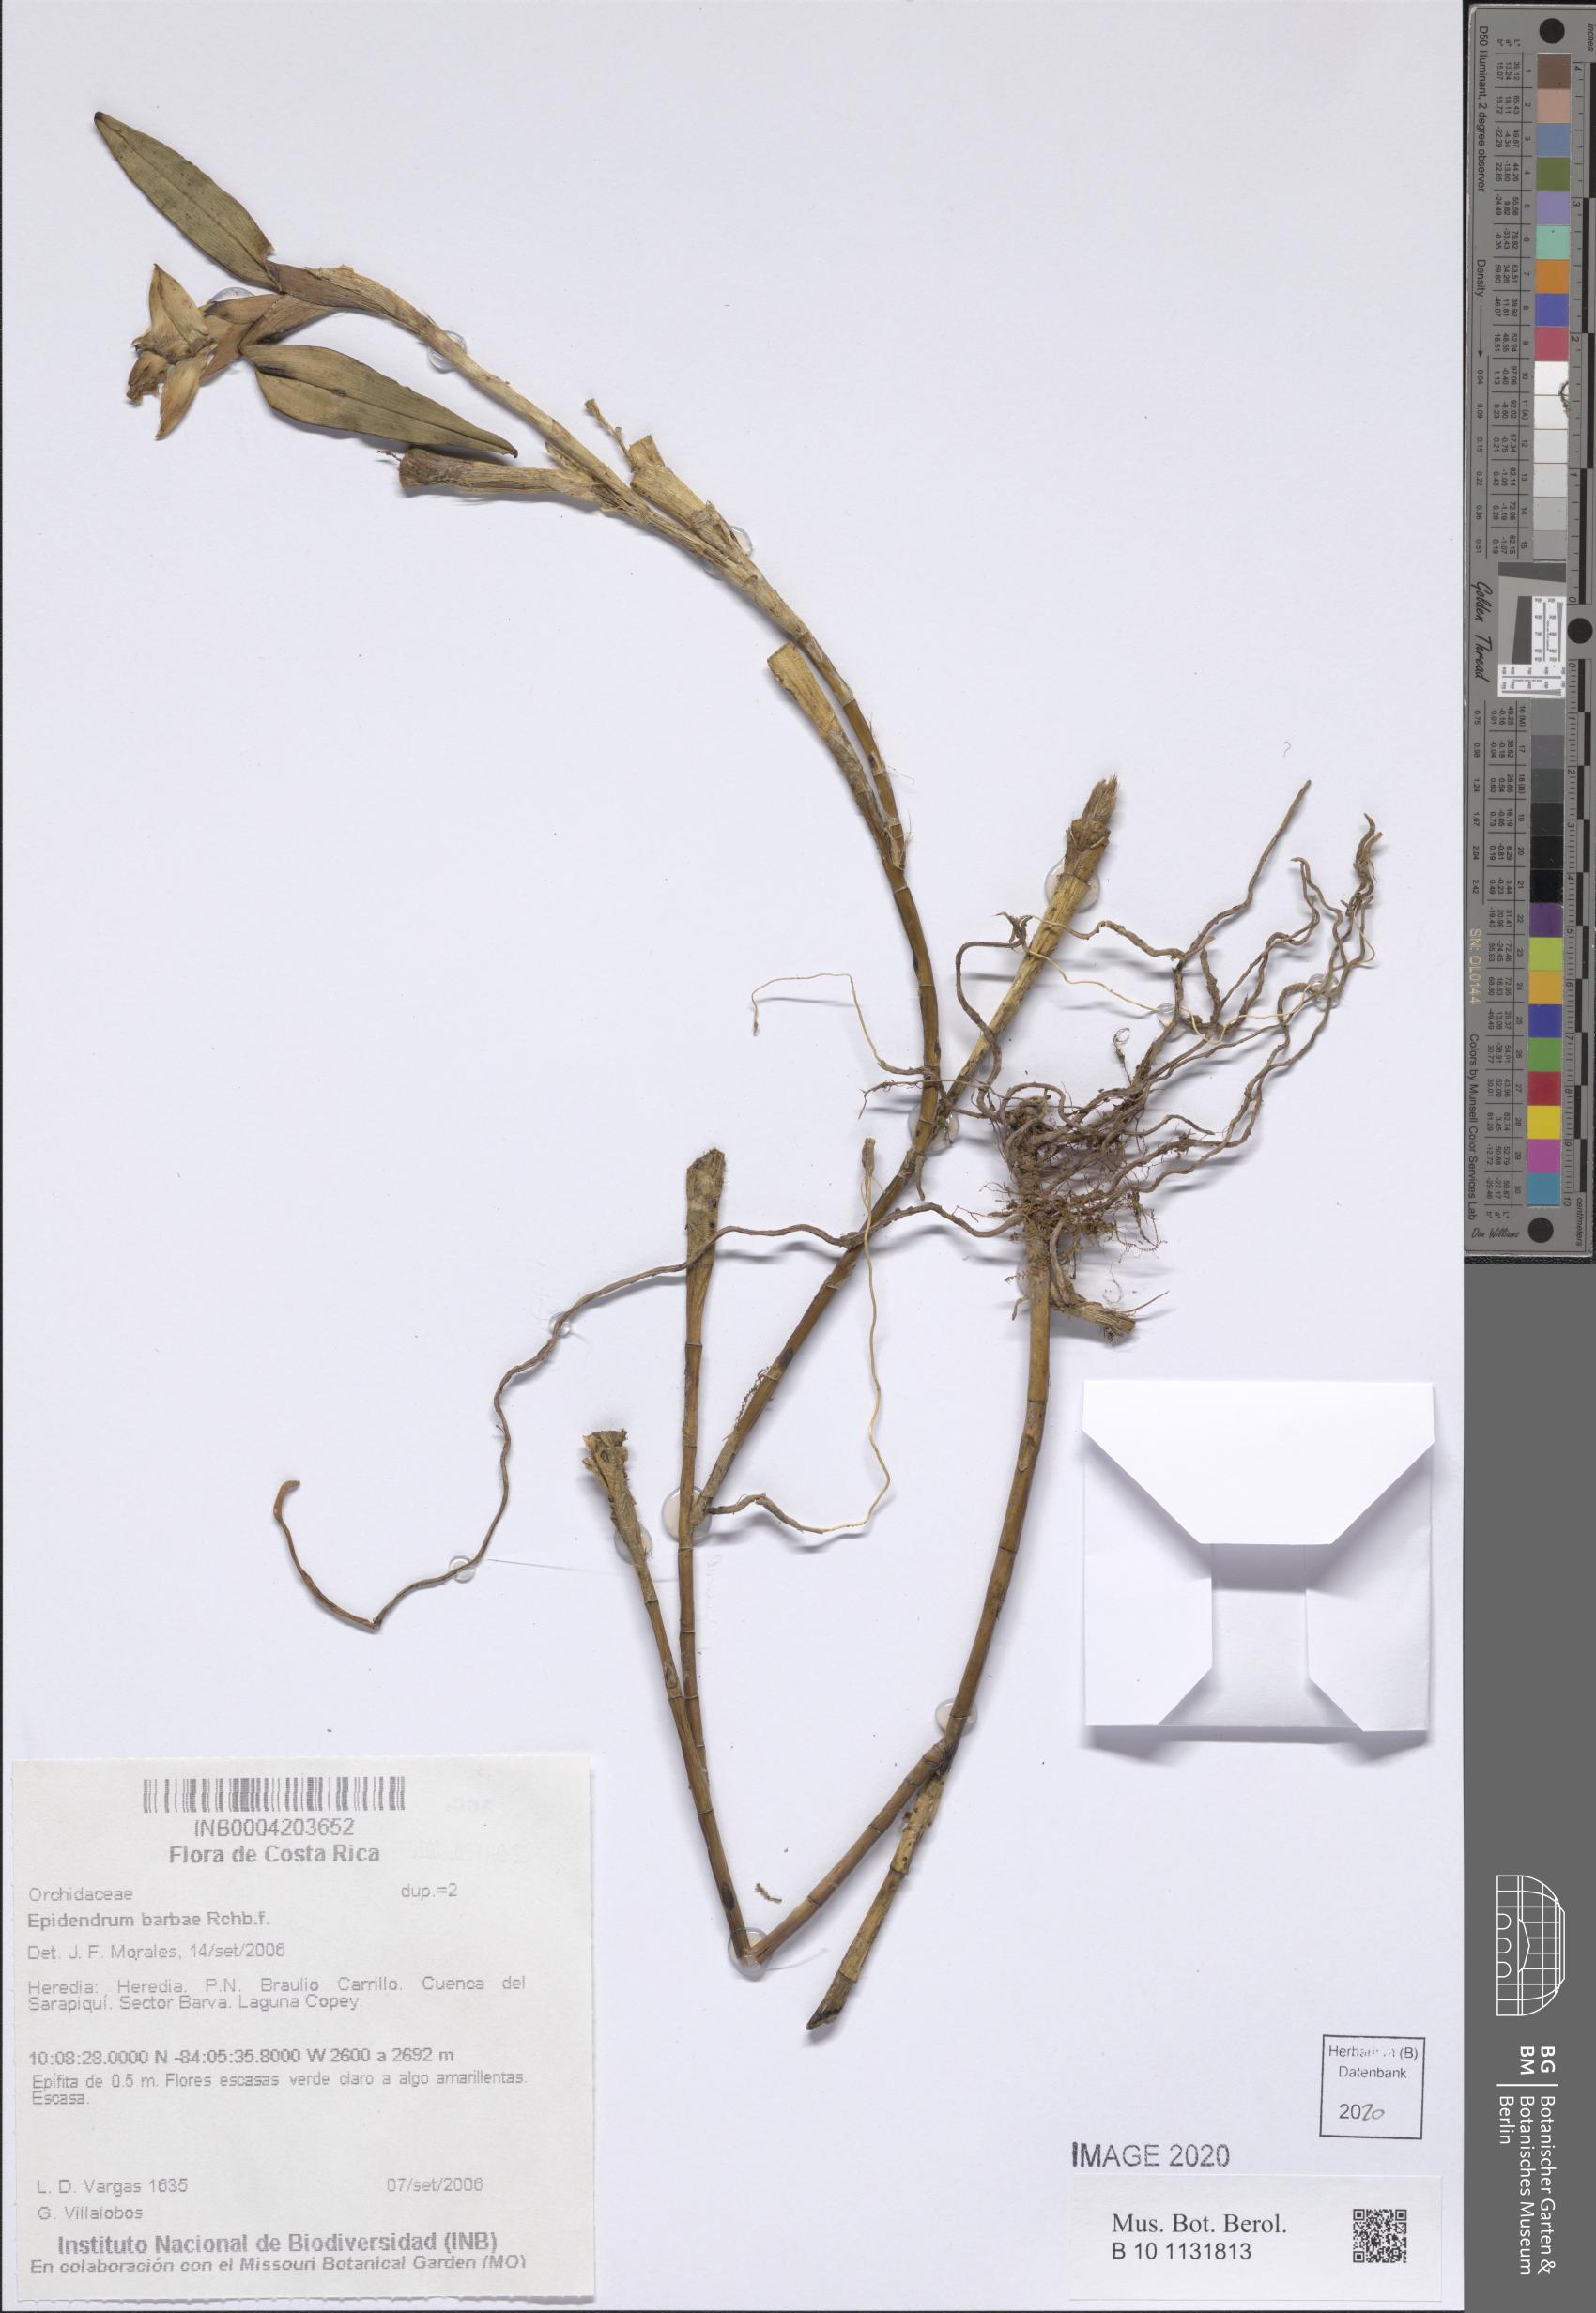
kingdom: Plantae
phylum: Tracheophyta
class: Liliopsida
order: Asparagales
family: Orchidaceae
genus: Epidendrum
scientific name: Epidendrum barbae
